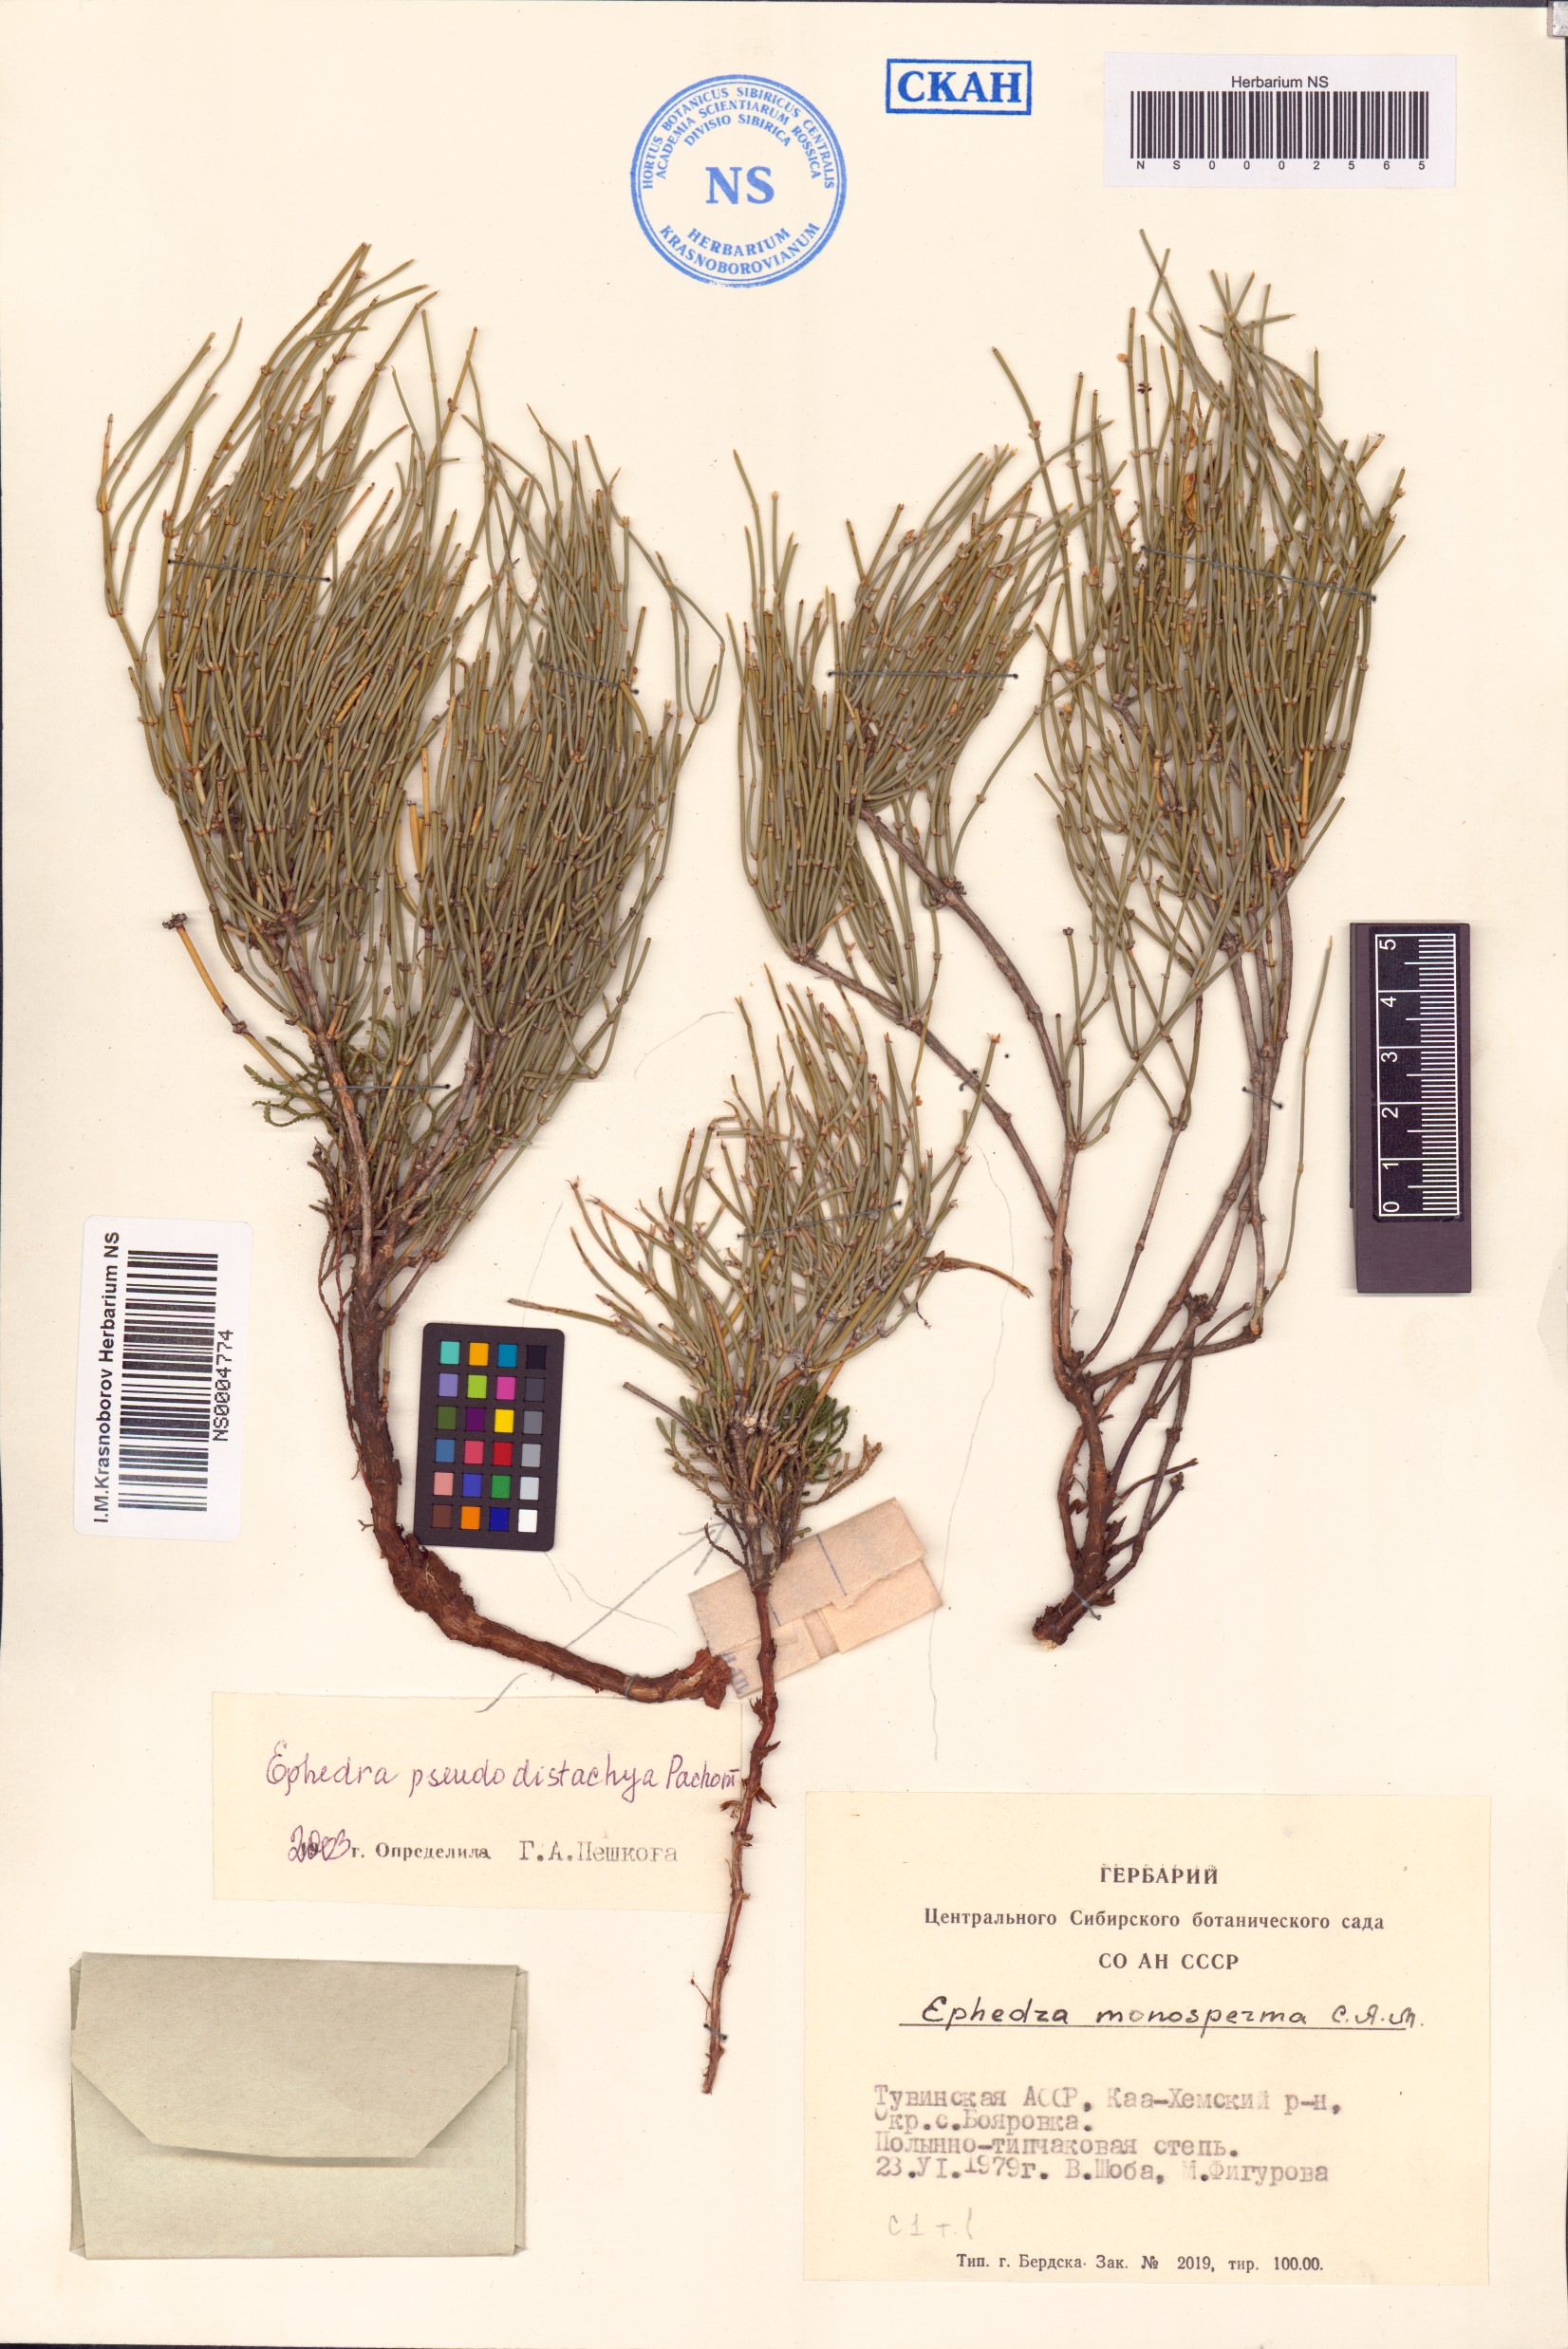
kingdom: Plantae
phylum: Tracheophyta
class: Gnetopsida
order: Ephedrales
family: Ephedraceae
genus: Ephedra
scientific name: Ephedra monosperma
